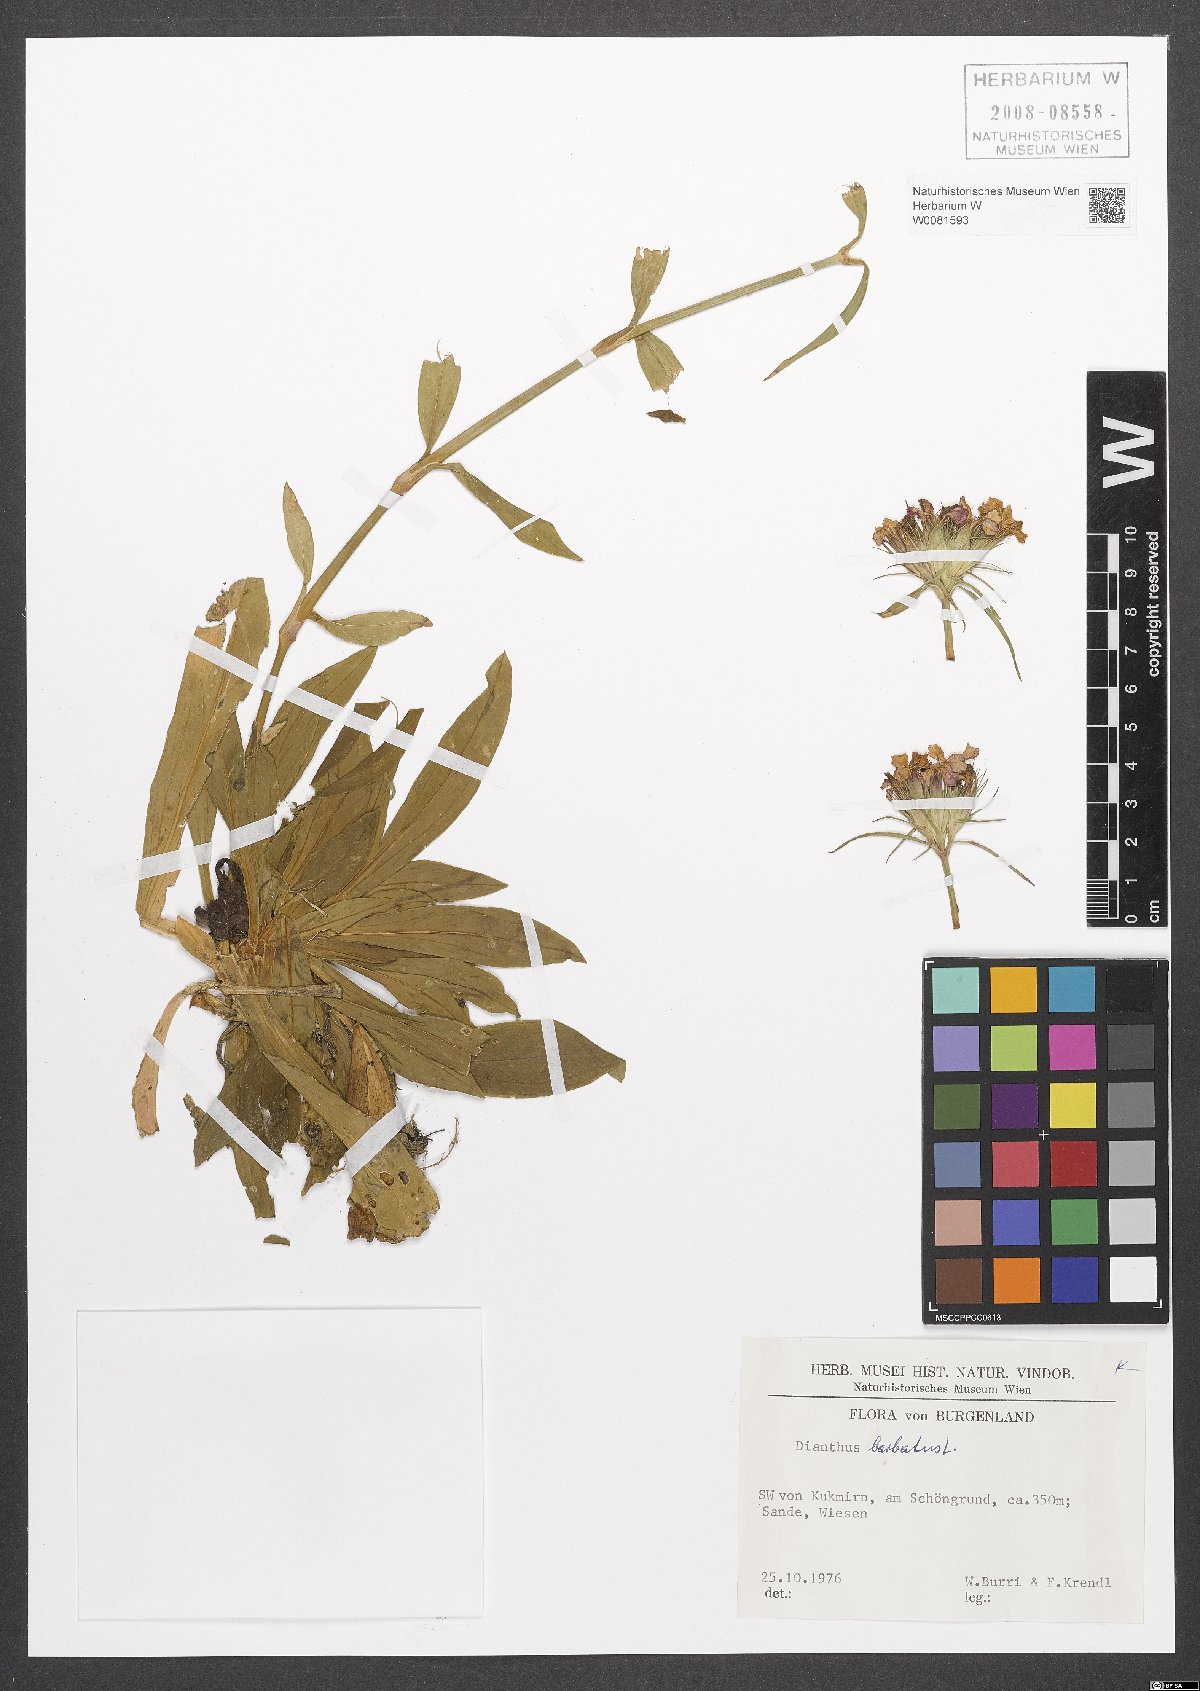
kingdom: Plantae
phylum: Tracheophyta
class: Magnoliopsida
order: Caryophyllales
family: Caryophyllaceae
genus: Dianthus
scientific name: Dianthus barbatus
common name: Sweet-william
